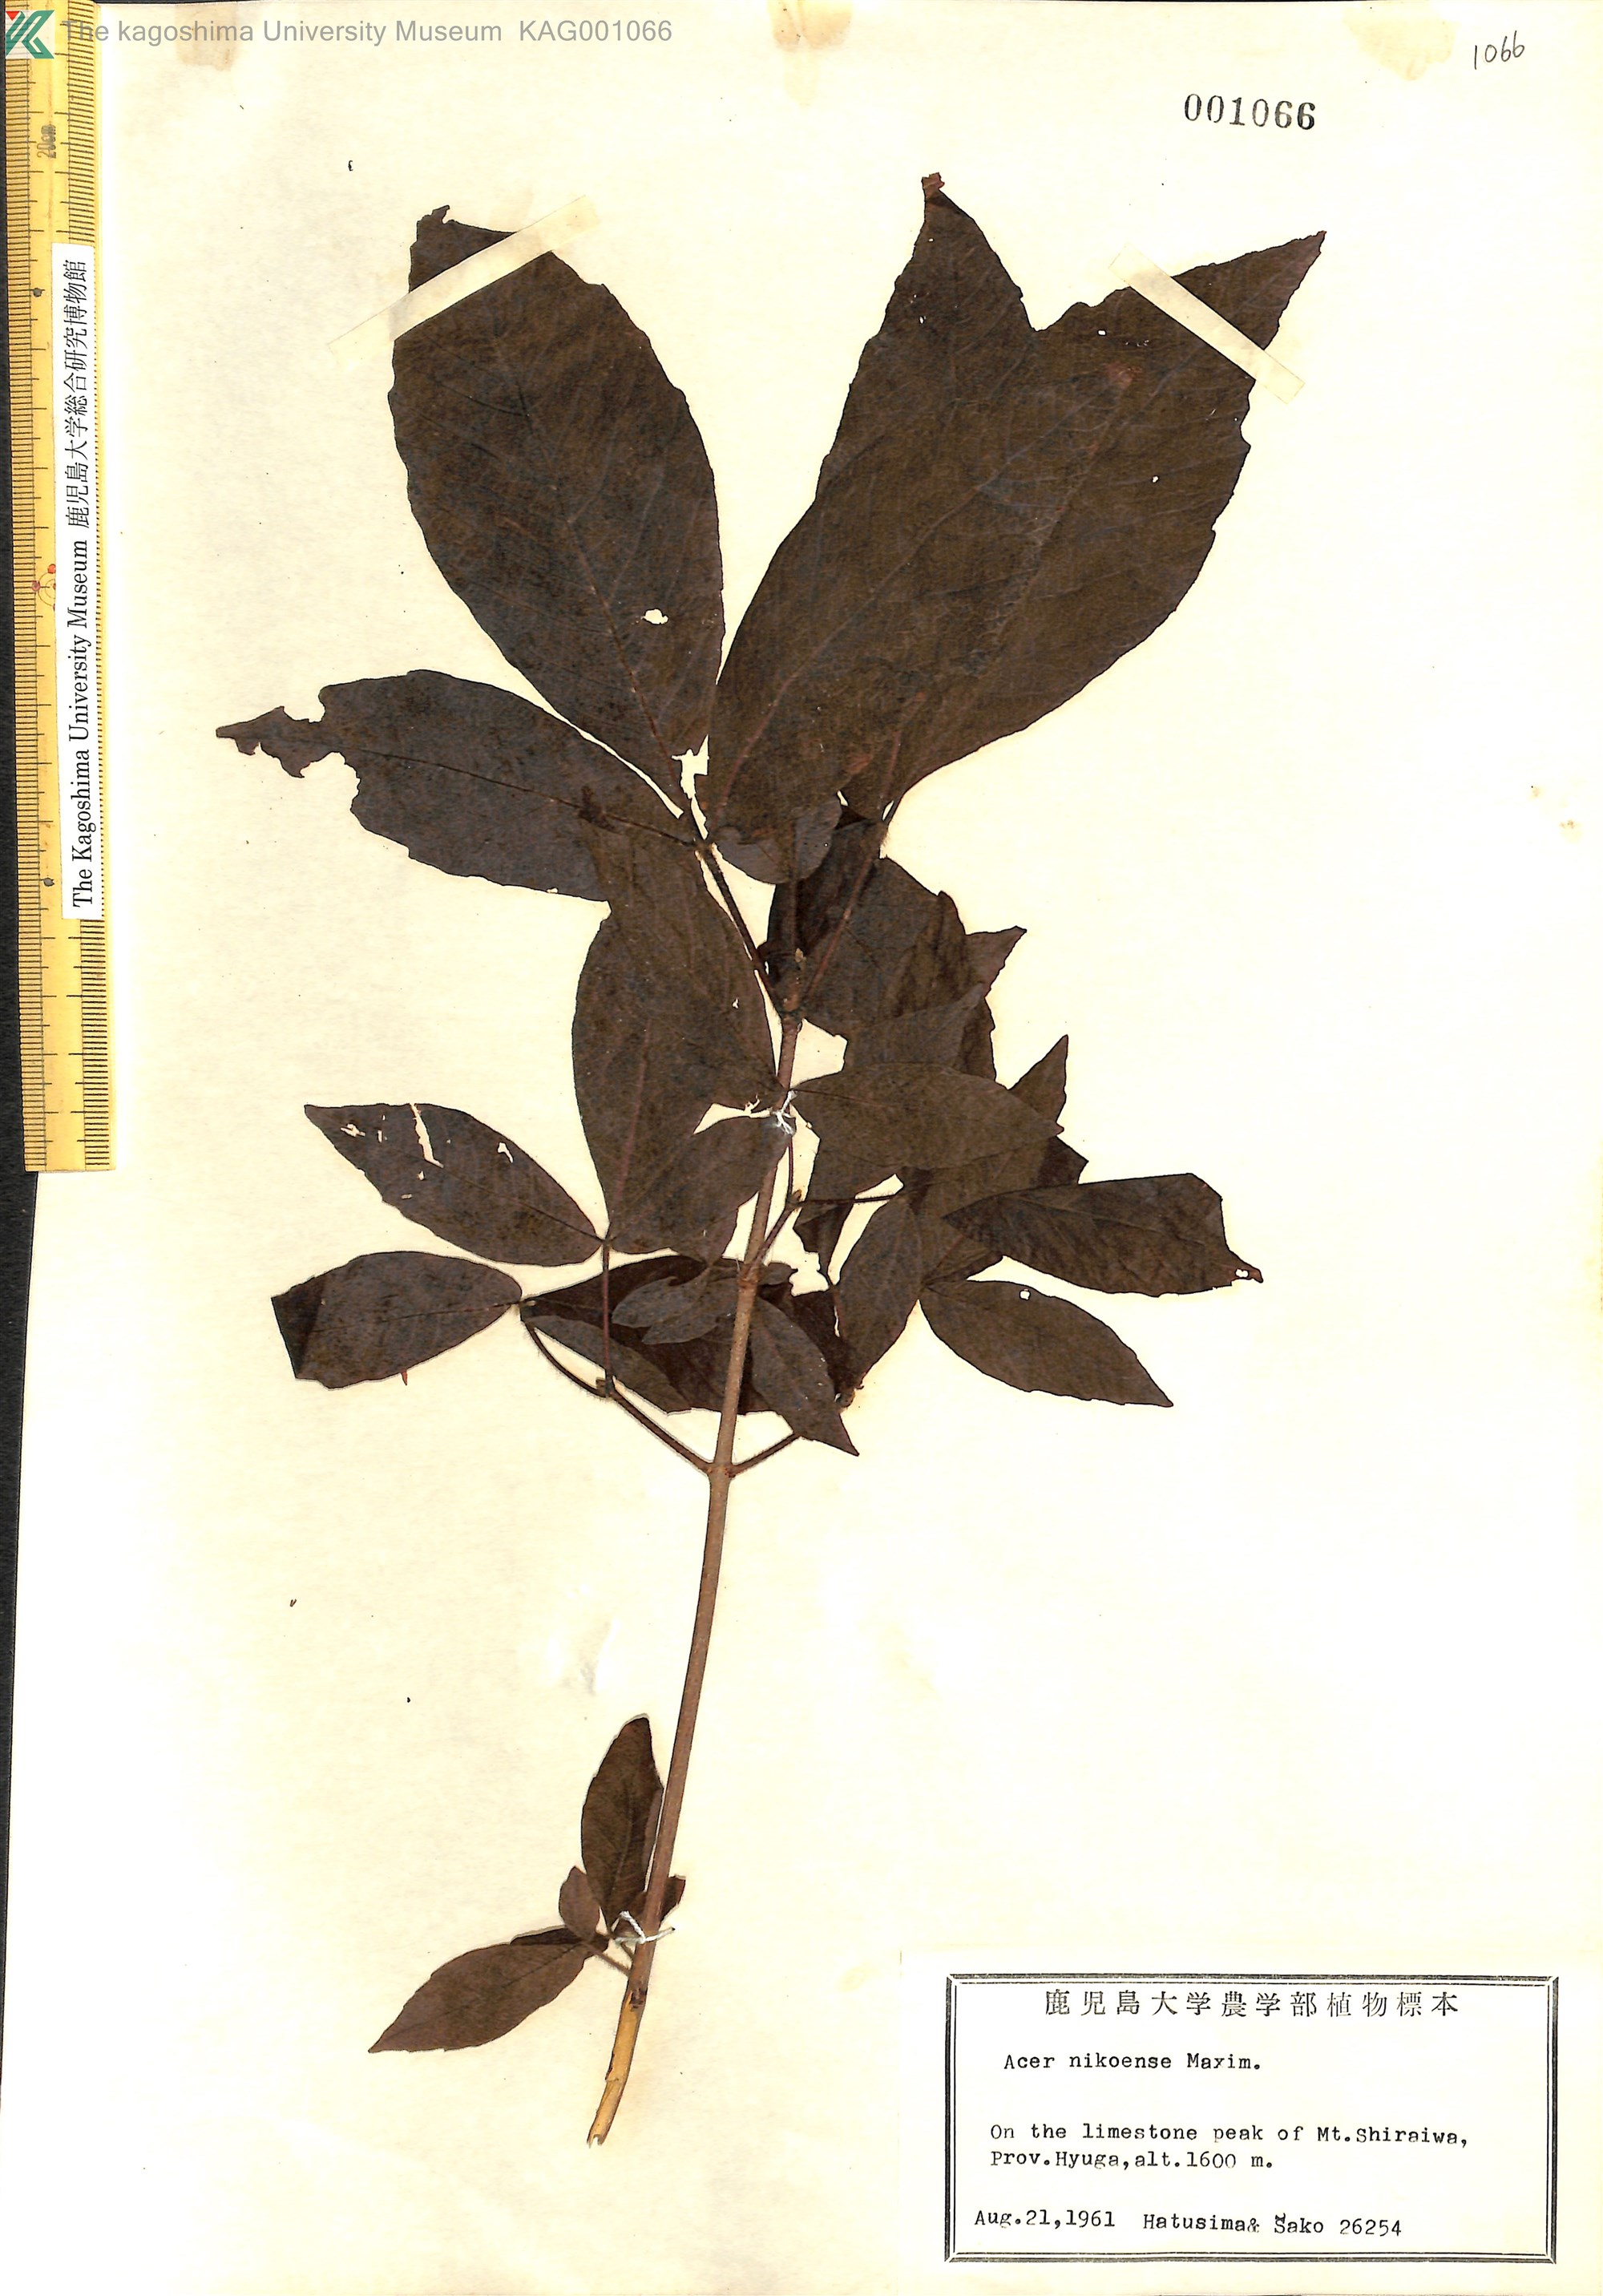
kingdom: Plantae
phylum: Tracheophyta
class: Magnoliopsida
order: Sapindales
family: Sapindaceae
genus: Acer
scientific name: Acer maximowiczianum
